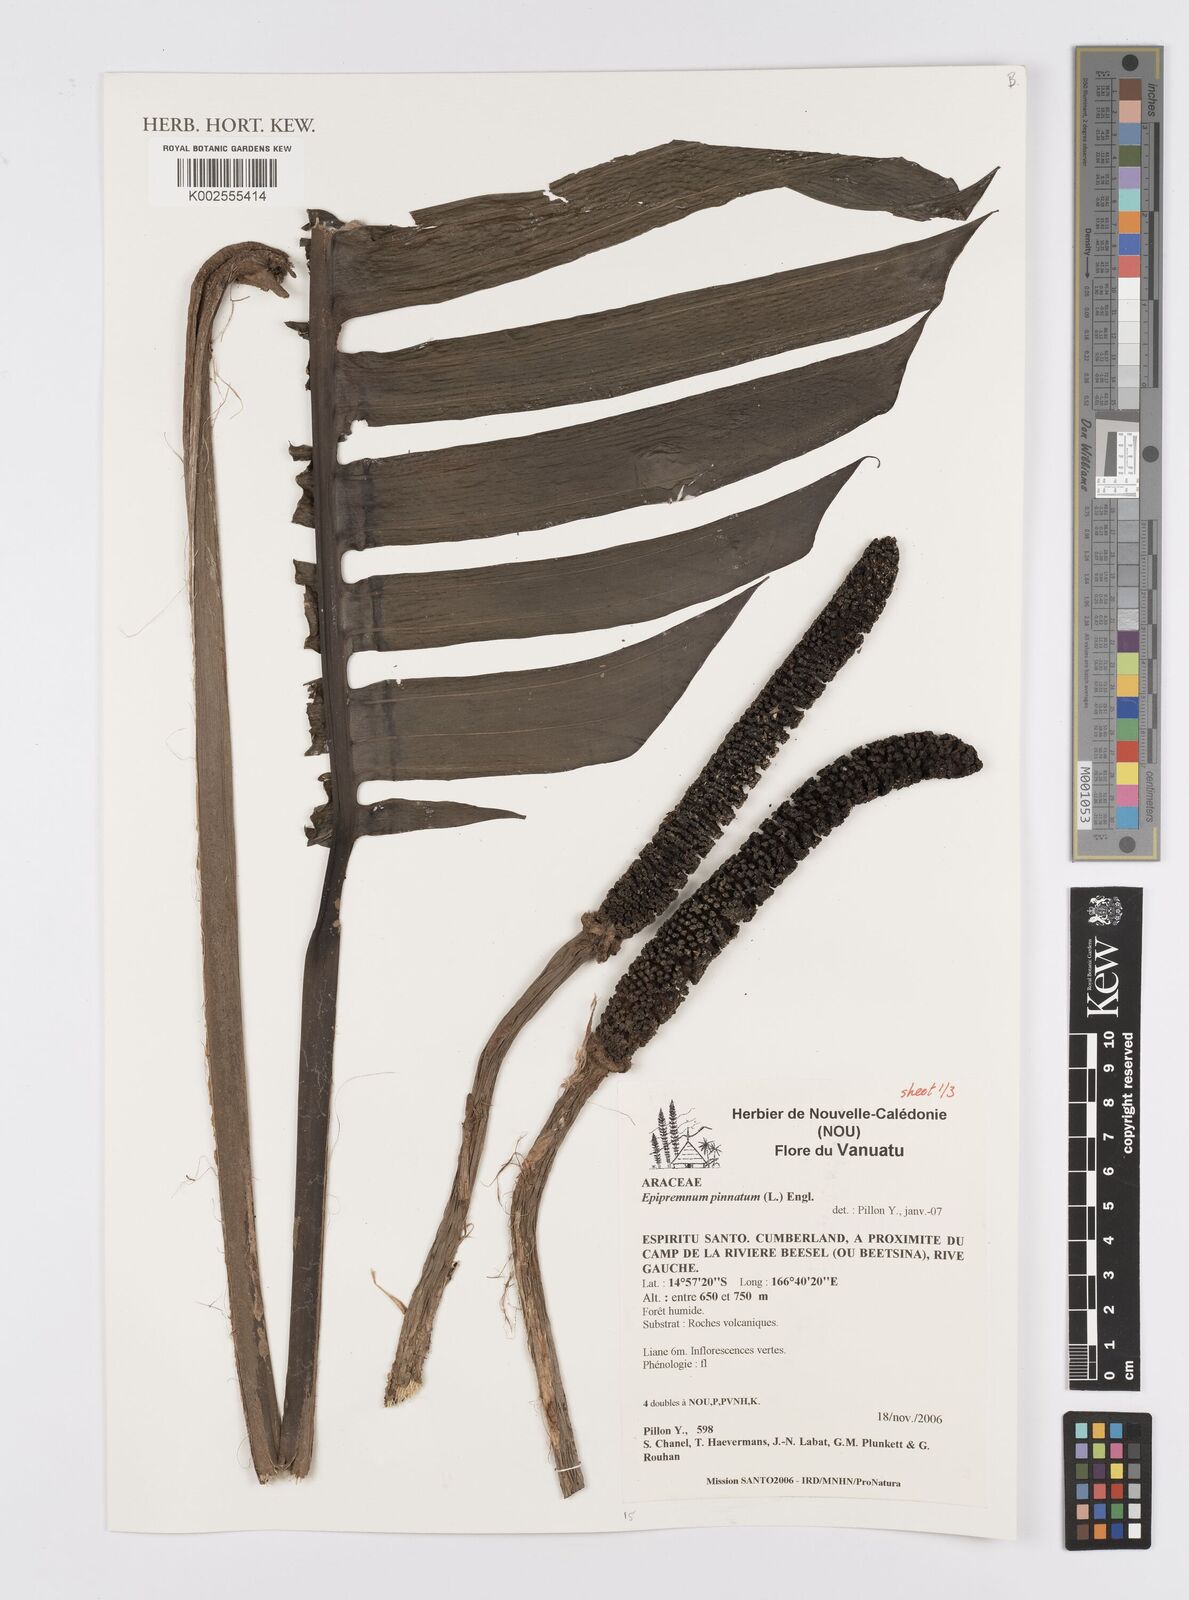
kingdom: Plantae
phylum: Tracheophyta
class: Liliopsida
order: Alismatales
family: Araceae
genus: Epipremnum
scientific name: Epipremnum pinnatum
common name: Centipede tongavine
